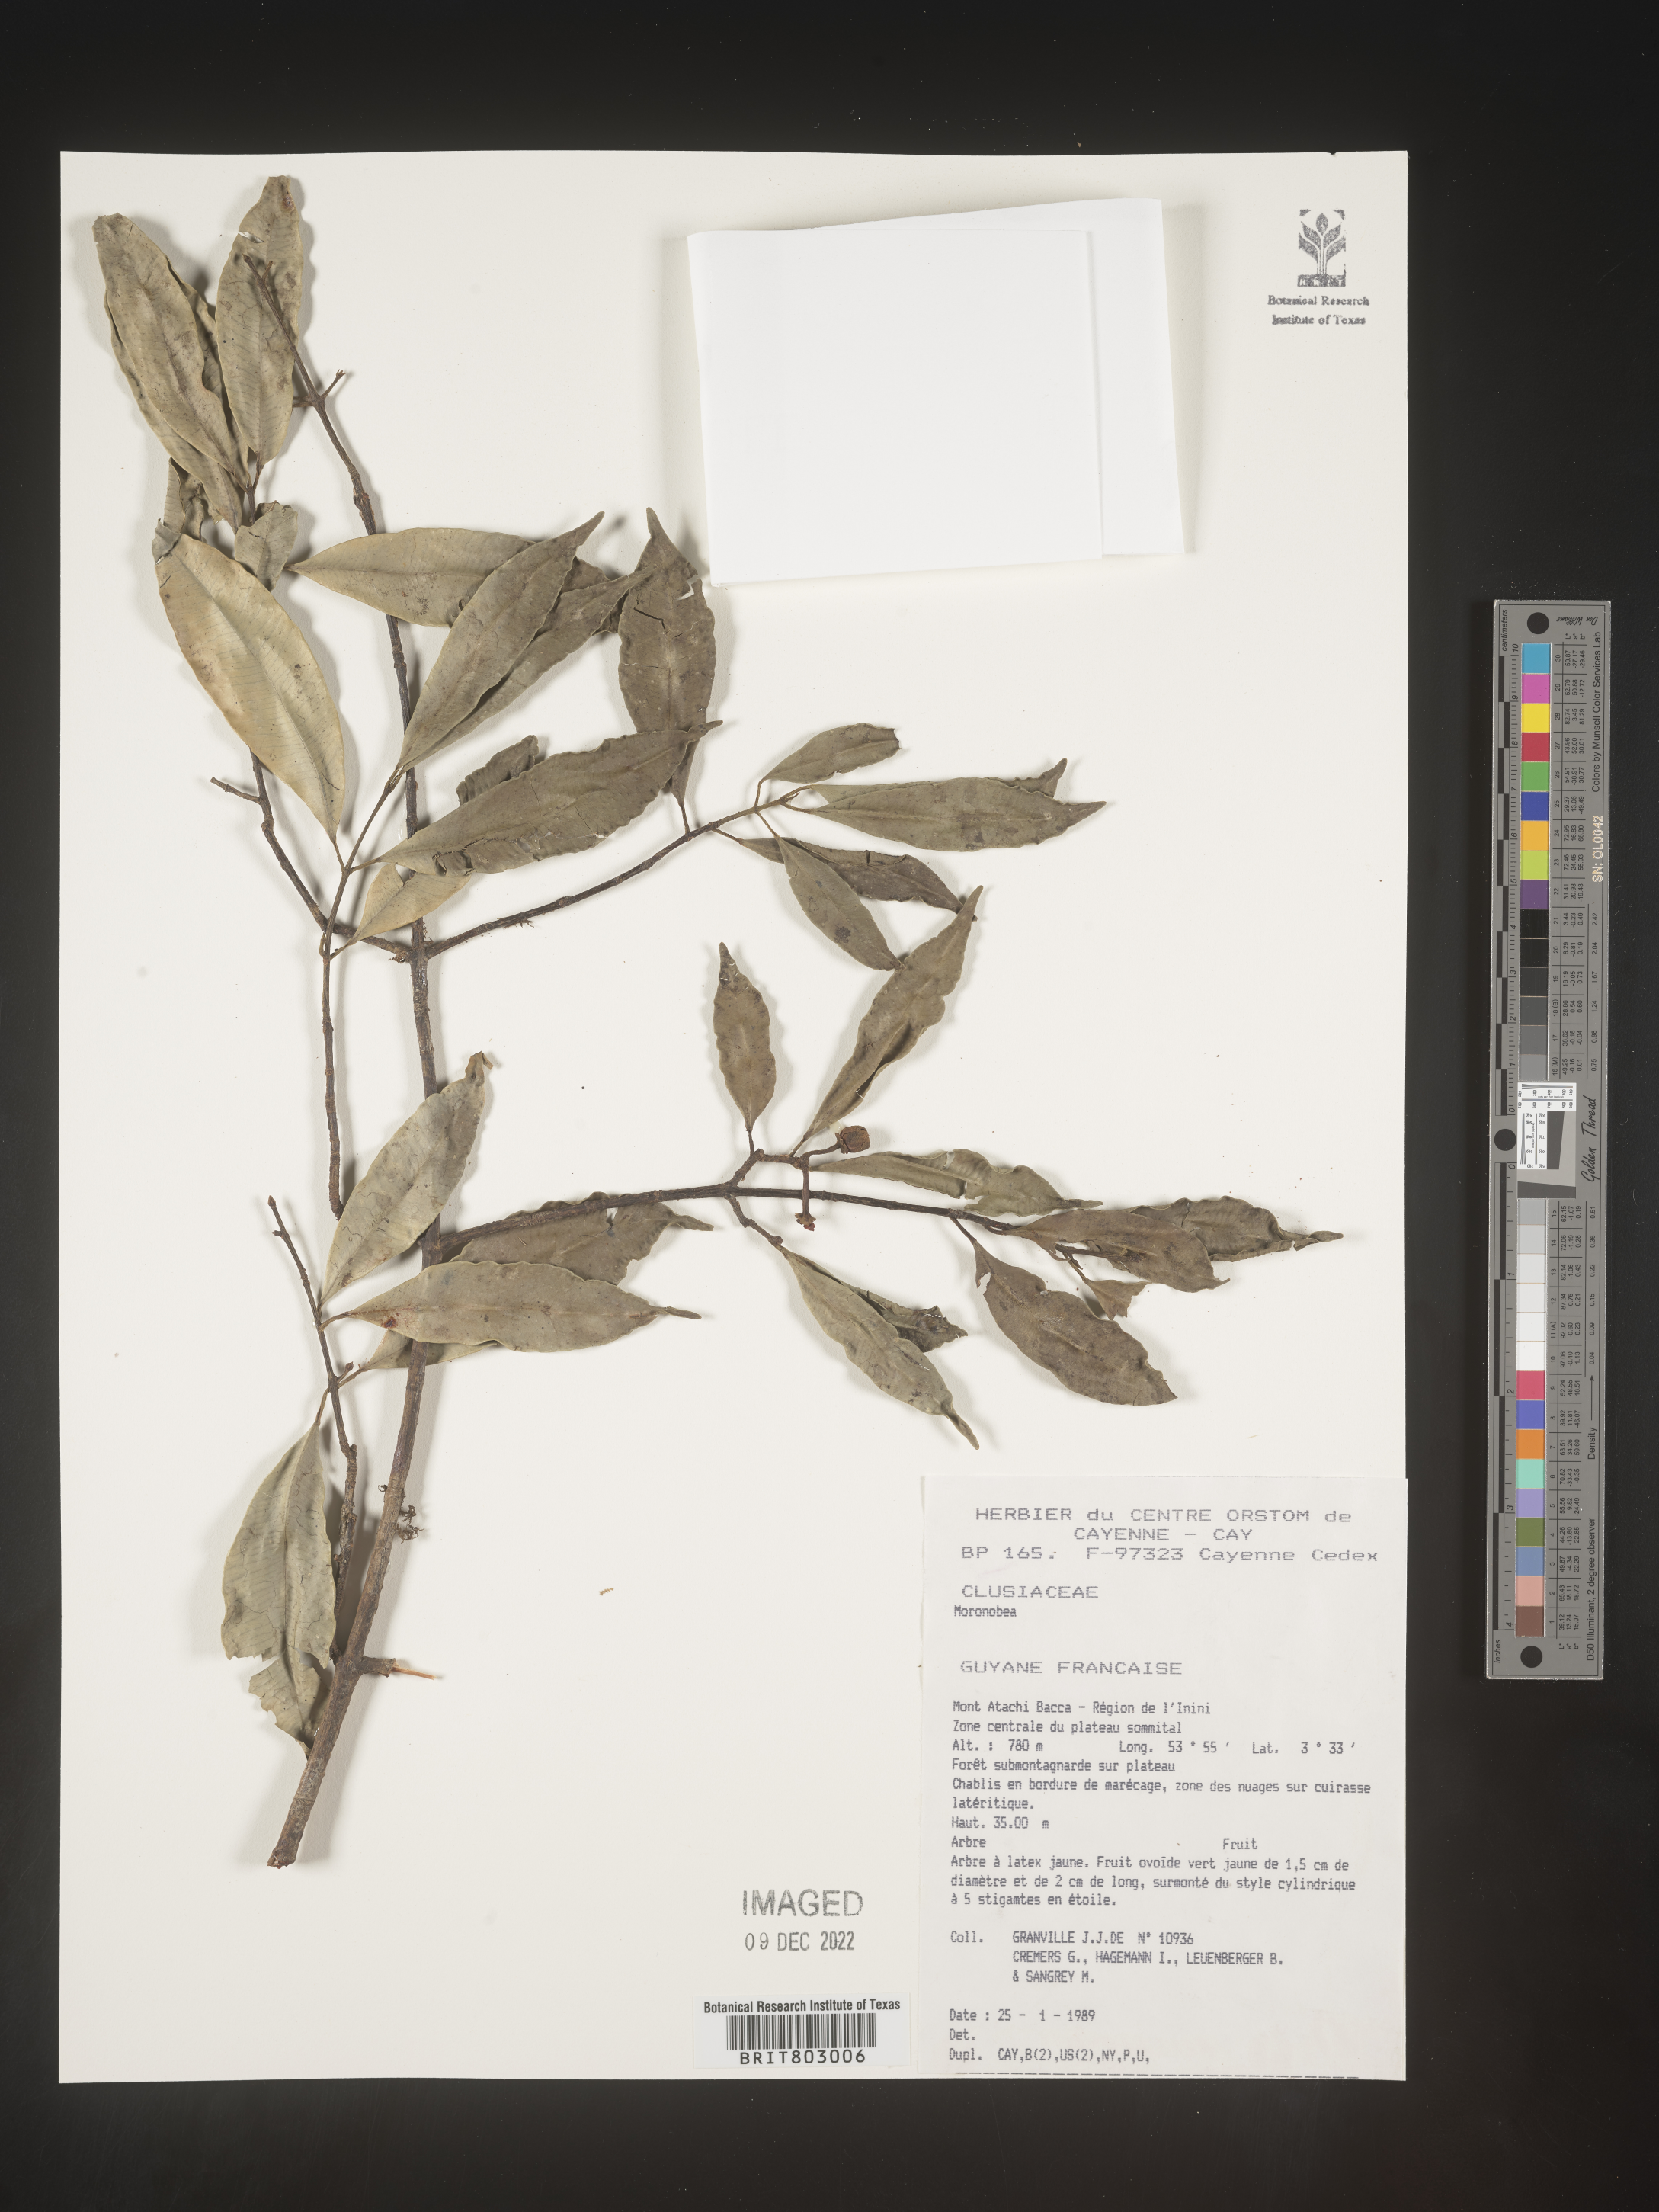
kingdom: Plantae
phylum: Tracheophyta
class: Magnoliopsida
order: Malpighiales
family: Clusiaceae
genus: Moronobea
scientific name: Moronobea
